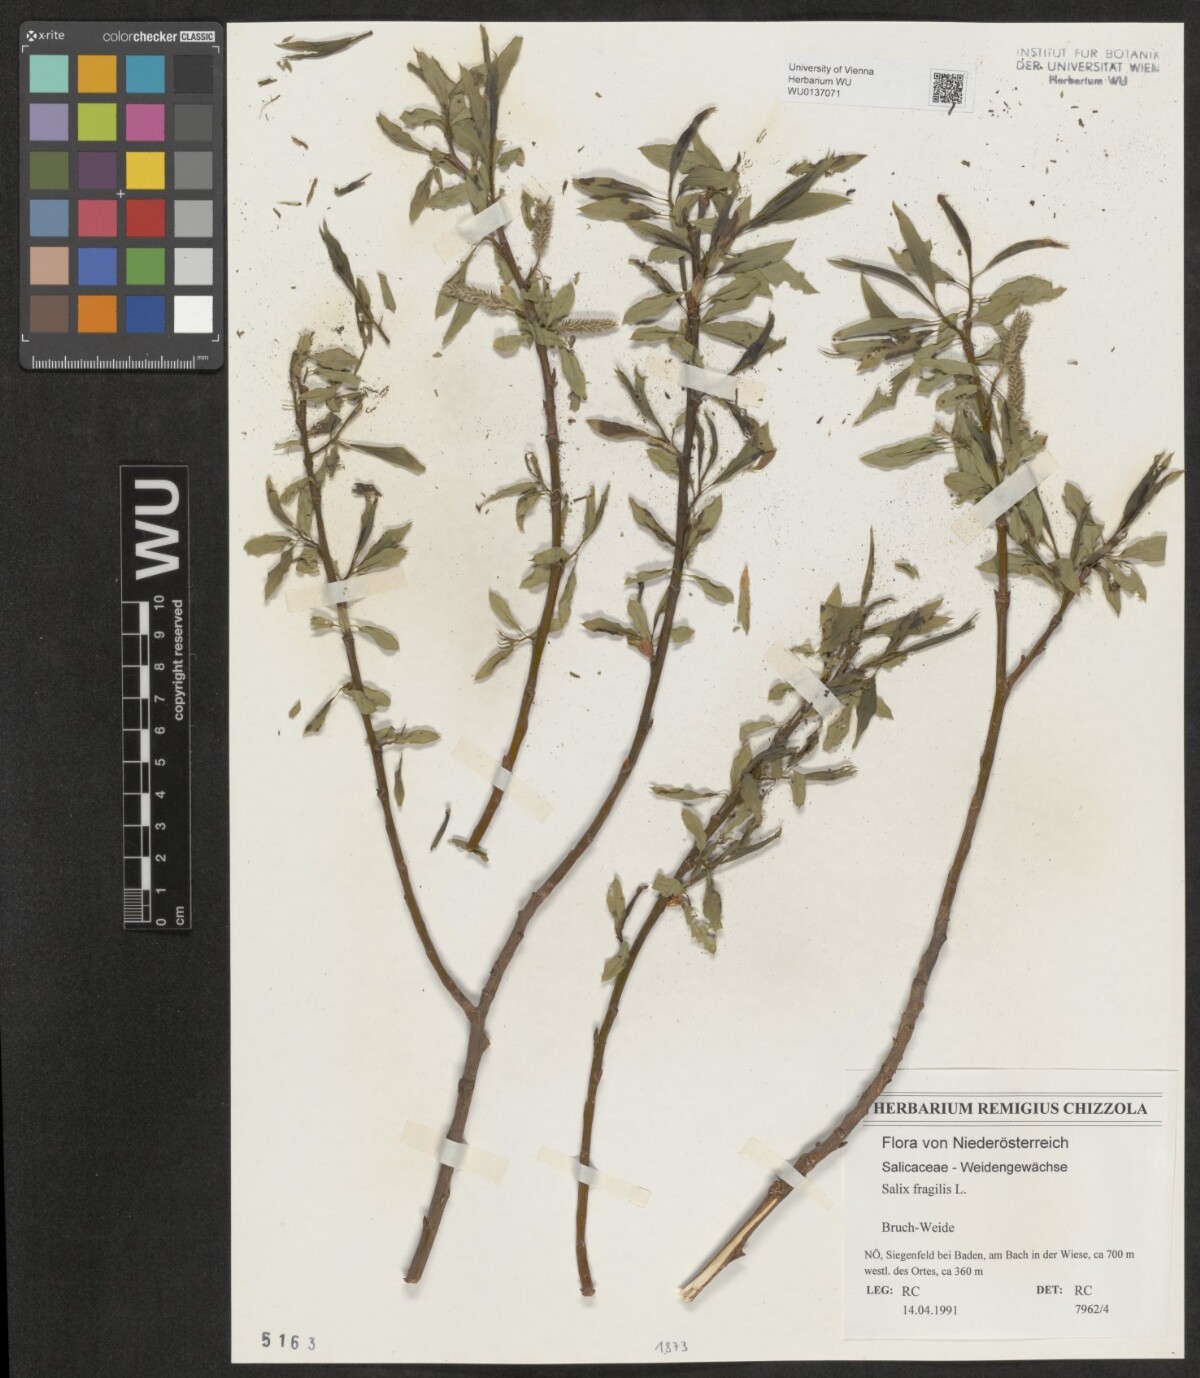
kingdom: Plantae
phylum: Tracheophyta
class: Magnoliopsida
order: Malpighiales
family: Salicaceae
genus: Salix
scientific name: Salix fragilis
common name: Crack willow
